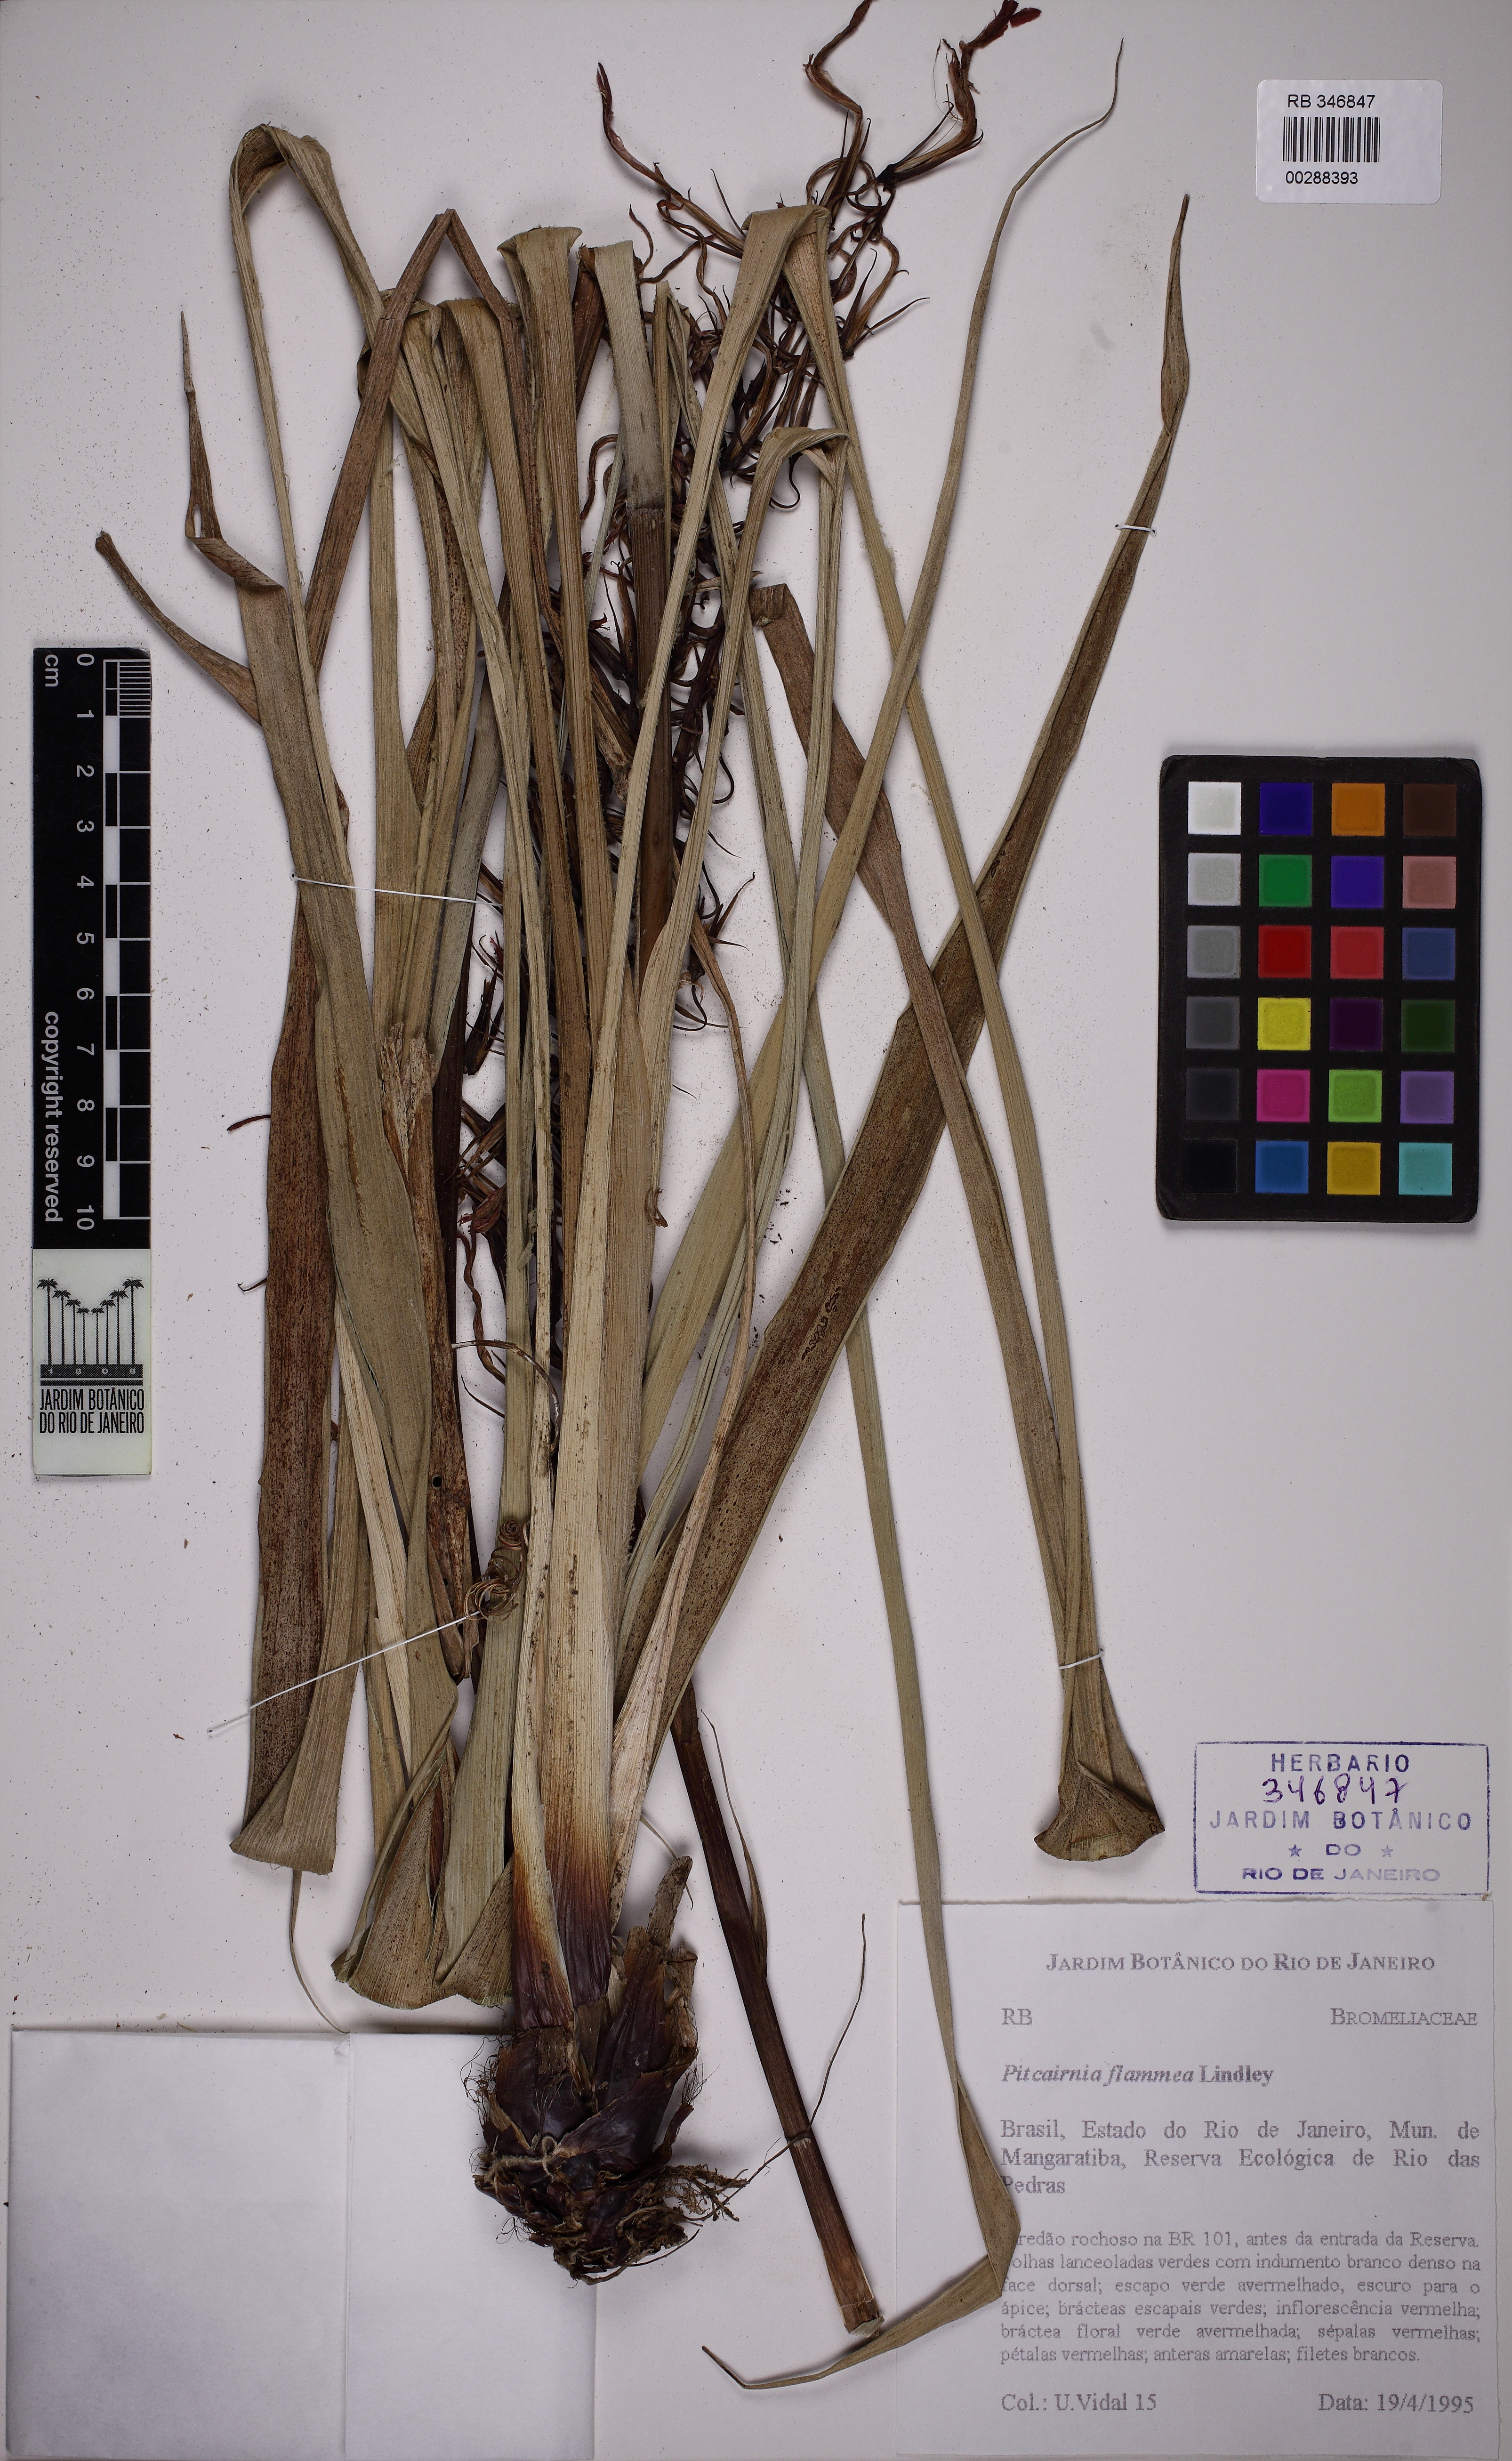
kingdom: Plantae
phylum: Tracheophyta
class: Liliopsida
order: Poales
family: Bromeliaceae
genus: Pitcairnia
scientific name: Pitcairnia flammea
